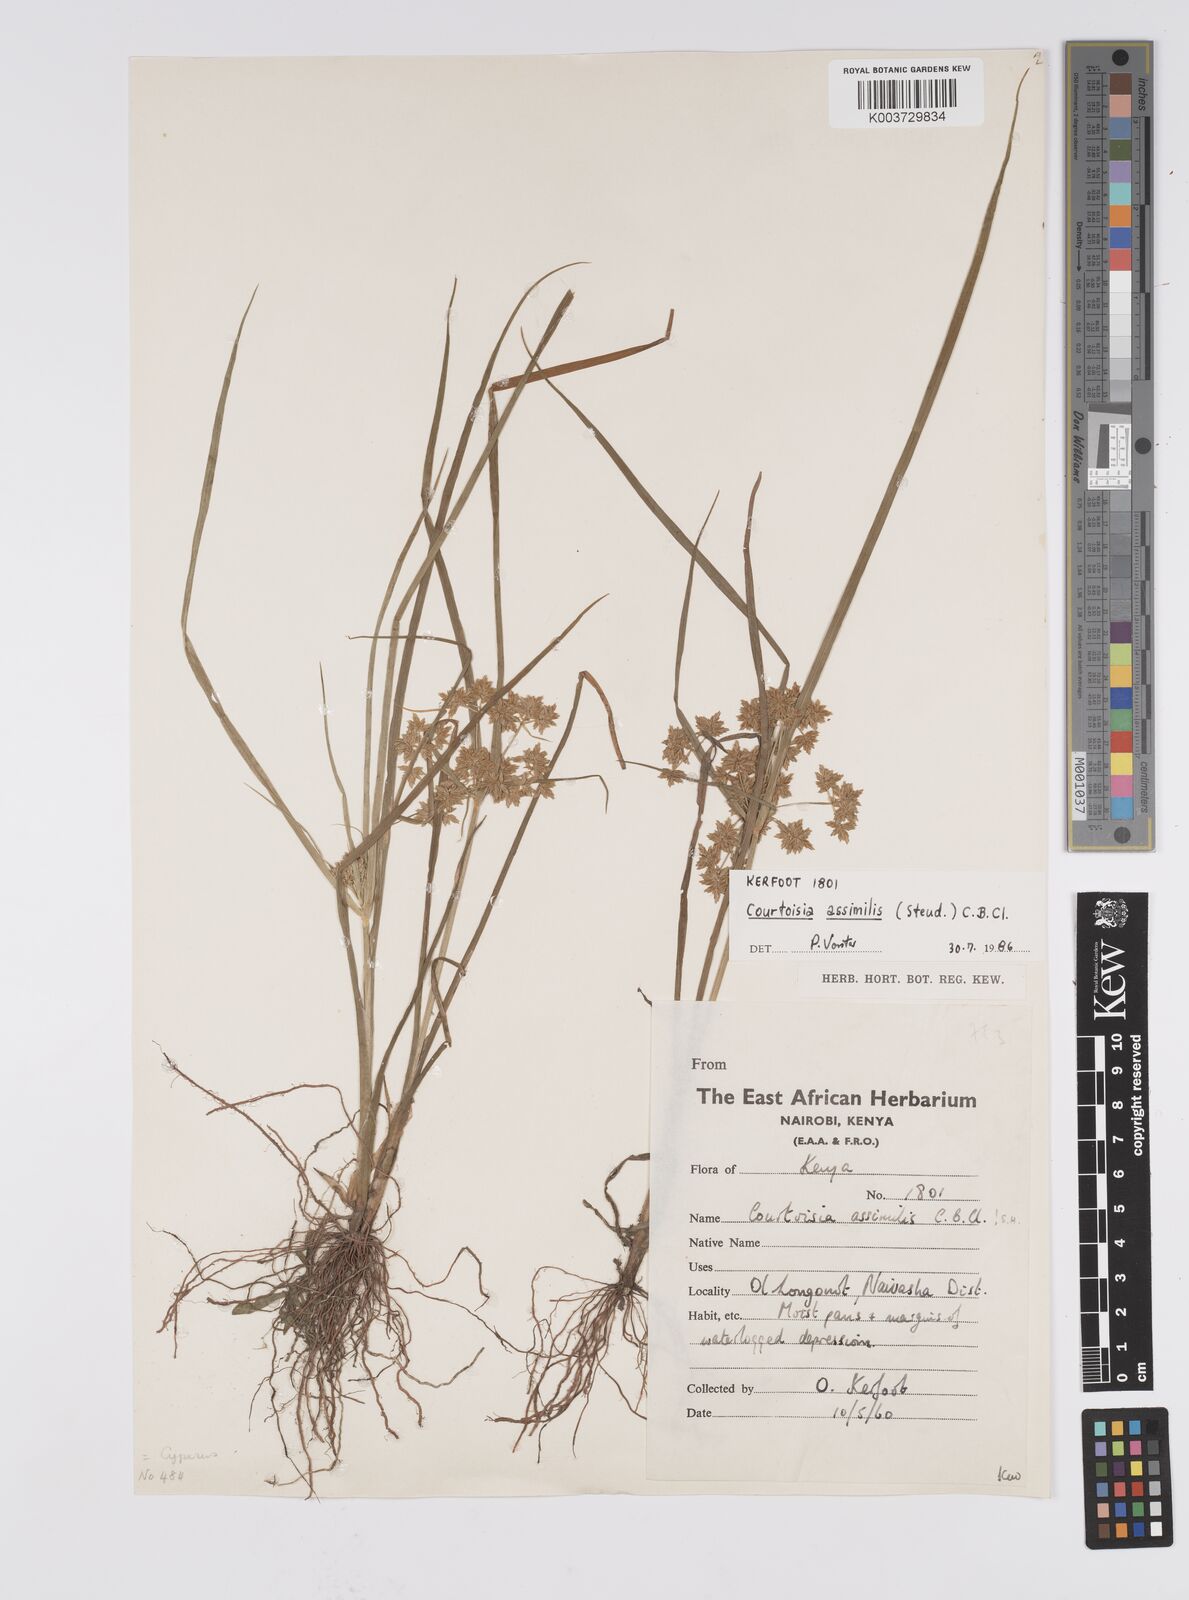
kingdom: Plantae
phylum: Tracheophyta
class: Liliopsida
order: Poales
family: Cyperaceae
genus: Cyperus
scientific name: Cyperus assimilis
